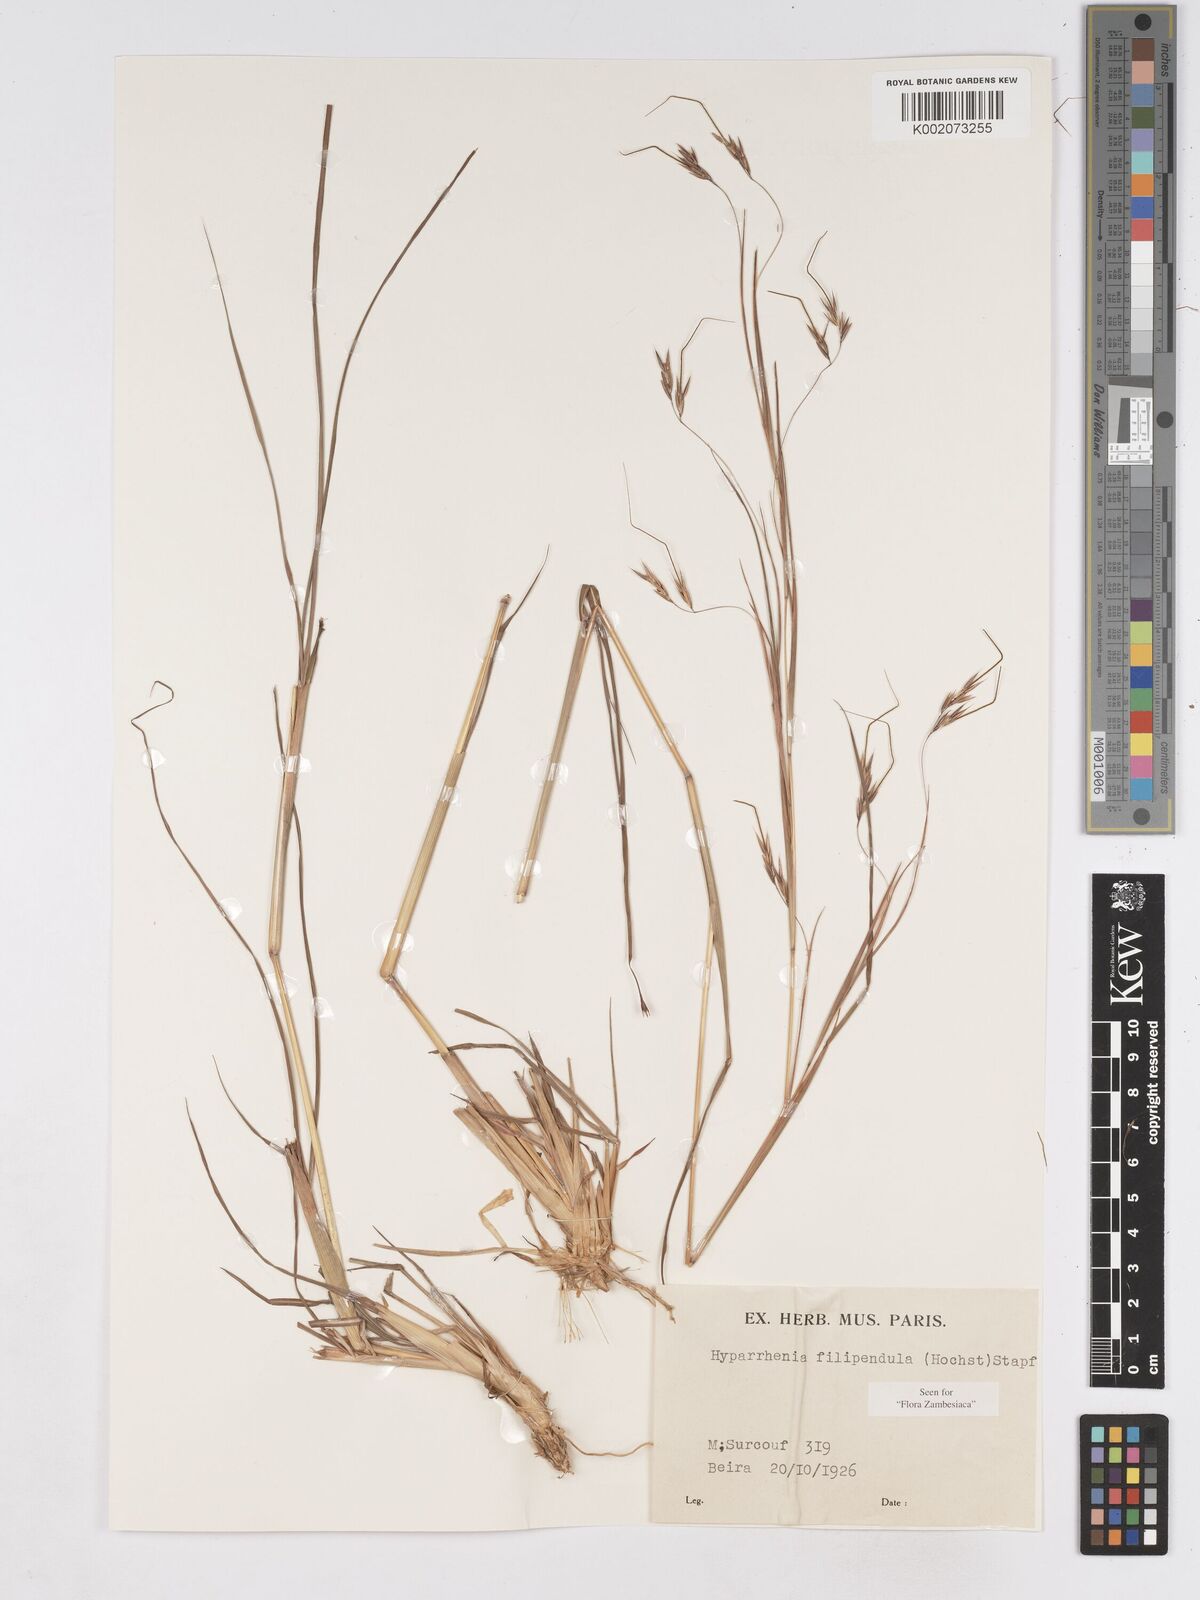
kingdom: Plantae
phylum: Tracheophyta
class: Liliopsida
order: Poales
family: Poaceae
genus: Hyparrhenia
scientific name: Hyparrhenia filipendula
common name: Tambookie grass
